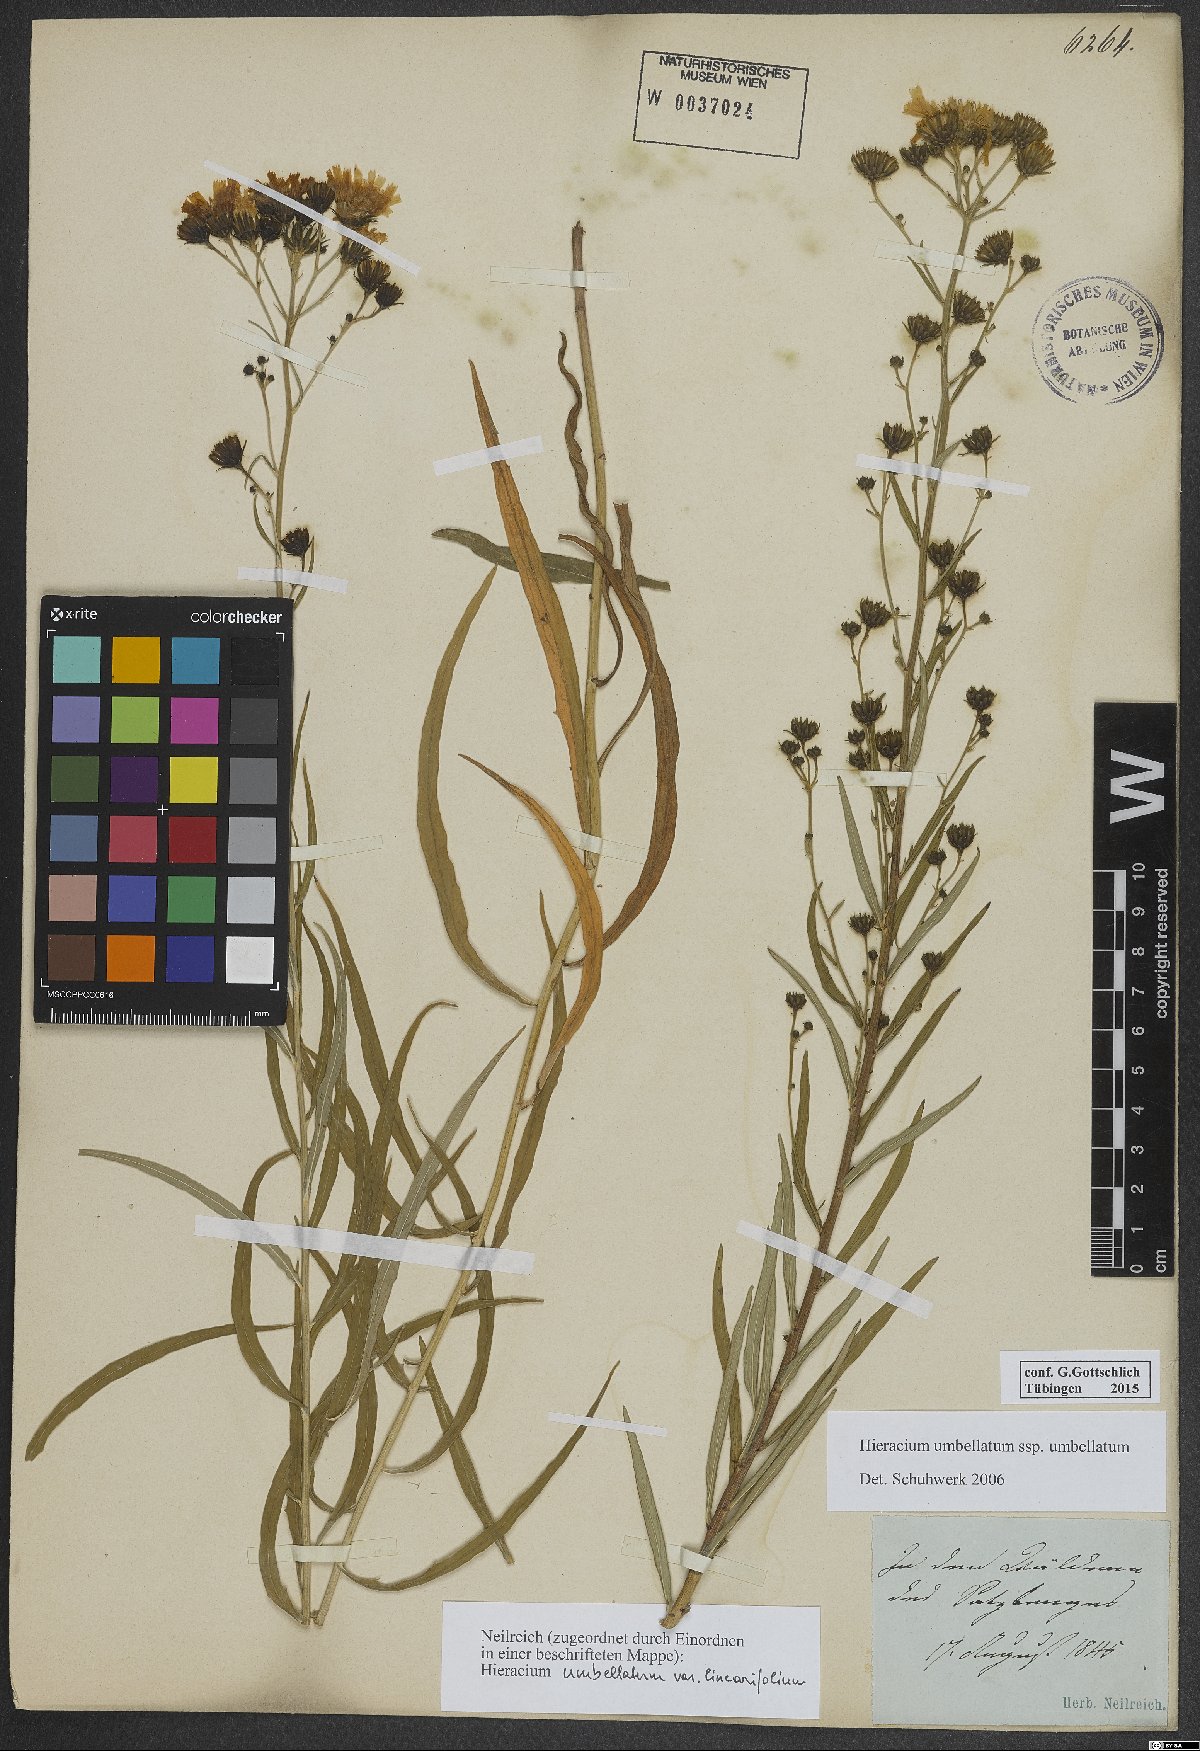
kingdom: Plantae
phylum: Tracheophyta
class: Magnoliopsida
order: Asterales
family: Asteraceae
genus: Hieracium
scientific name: Hieracium umbellatum
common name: Northern hawkweed
